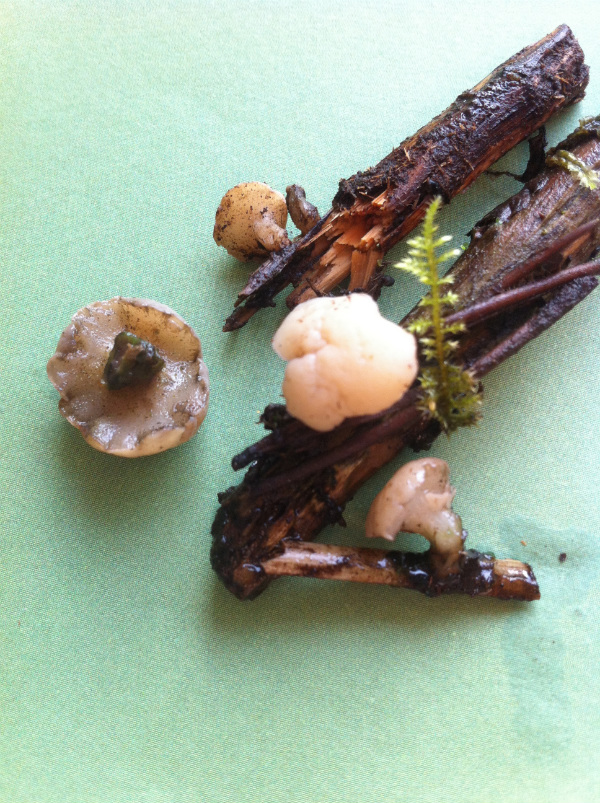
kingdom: Fungi
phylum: Ascomycota
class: Leotiomycetes
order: Helotiales
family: Tricladiaceae
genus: Cudoniella
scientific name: Cudoniella clavus
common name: stor dyndskive
